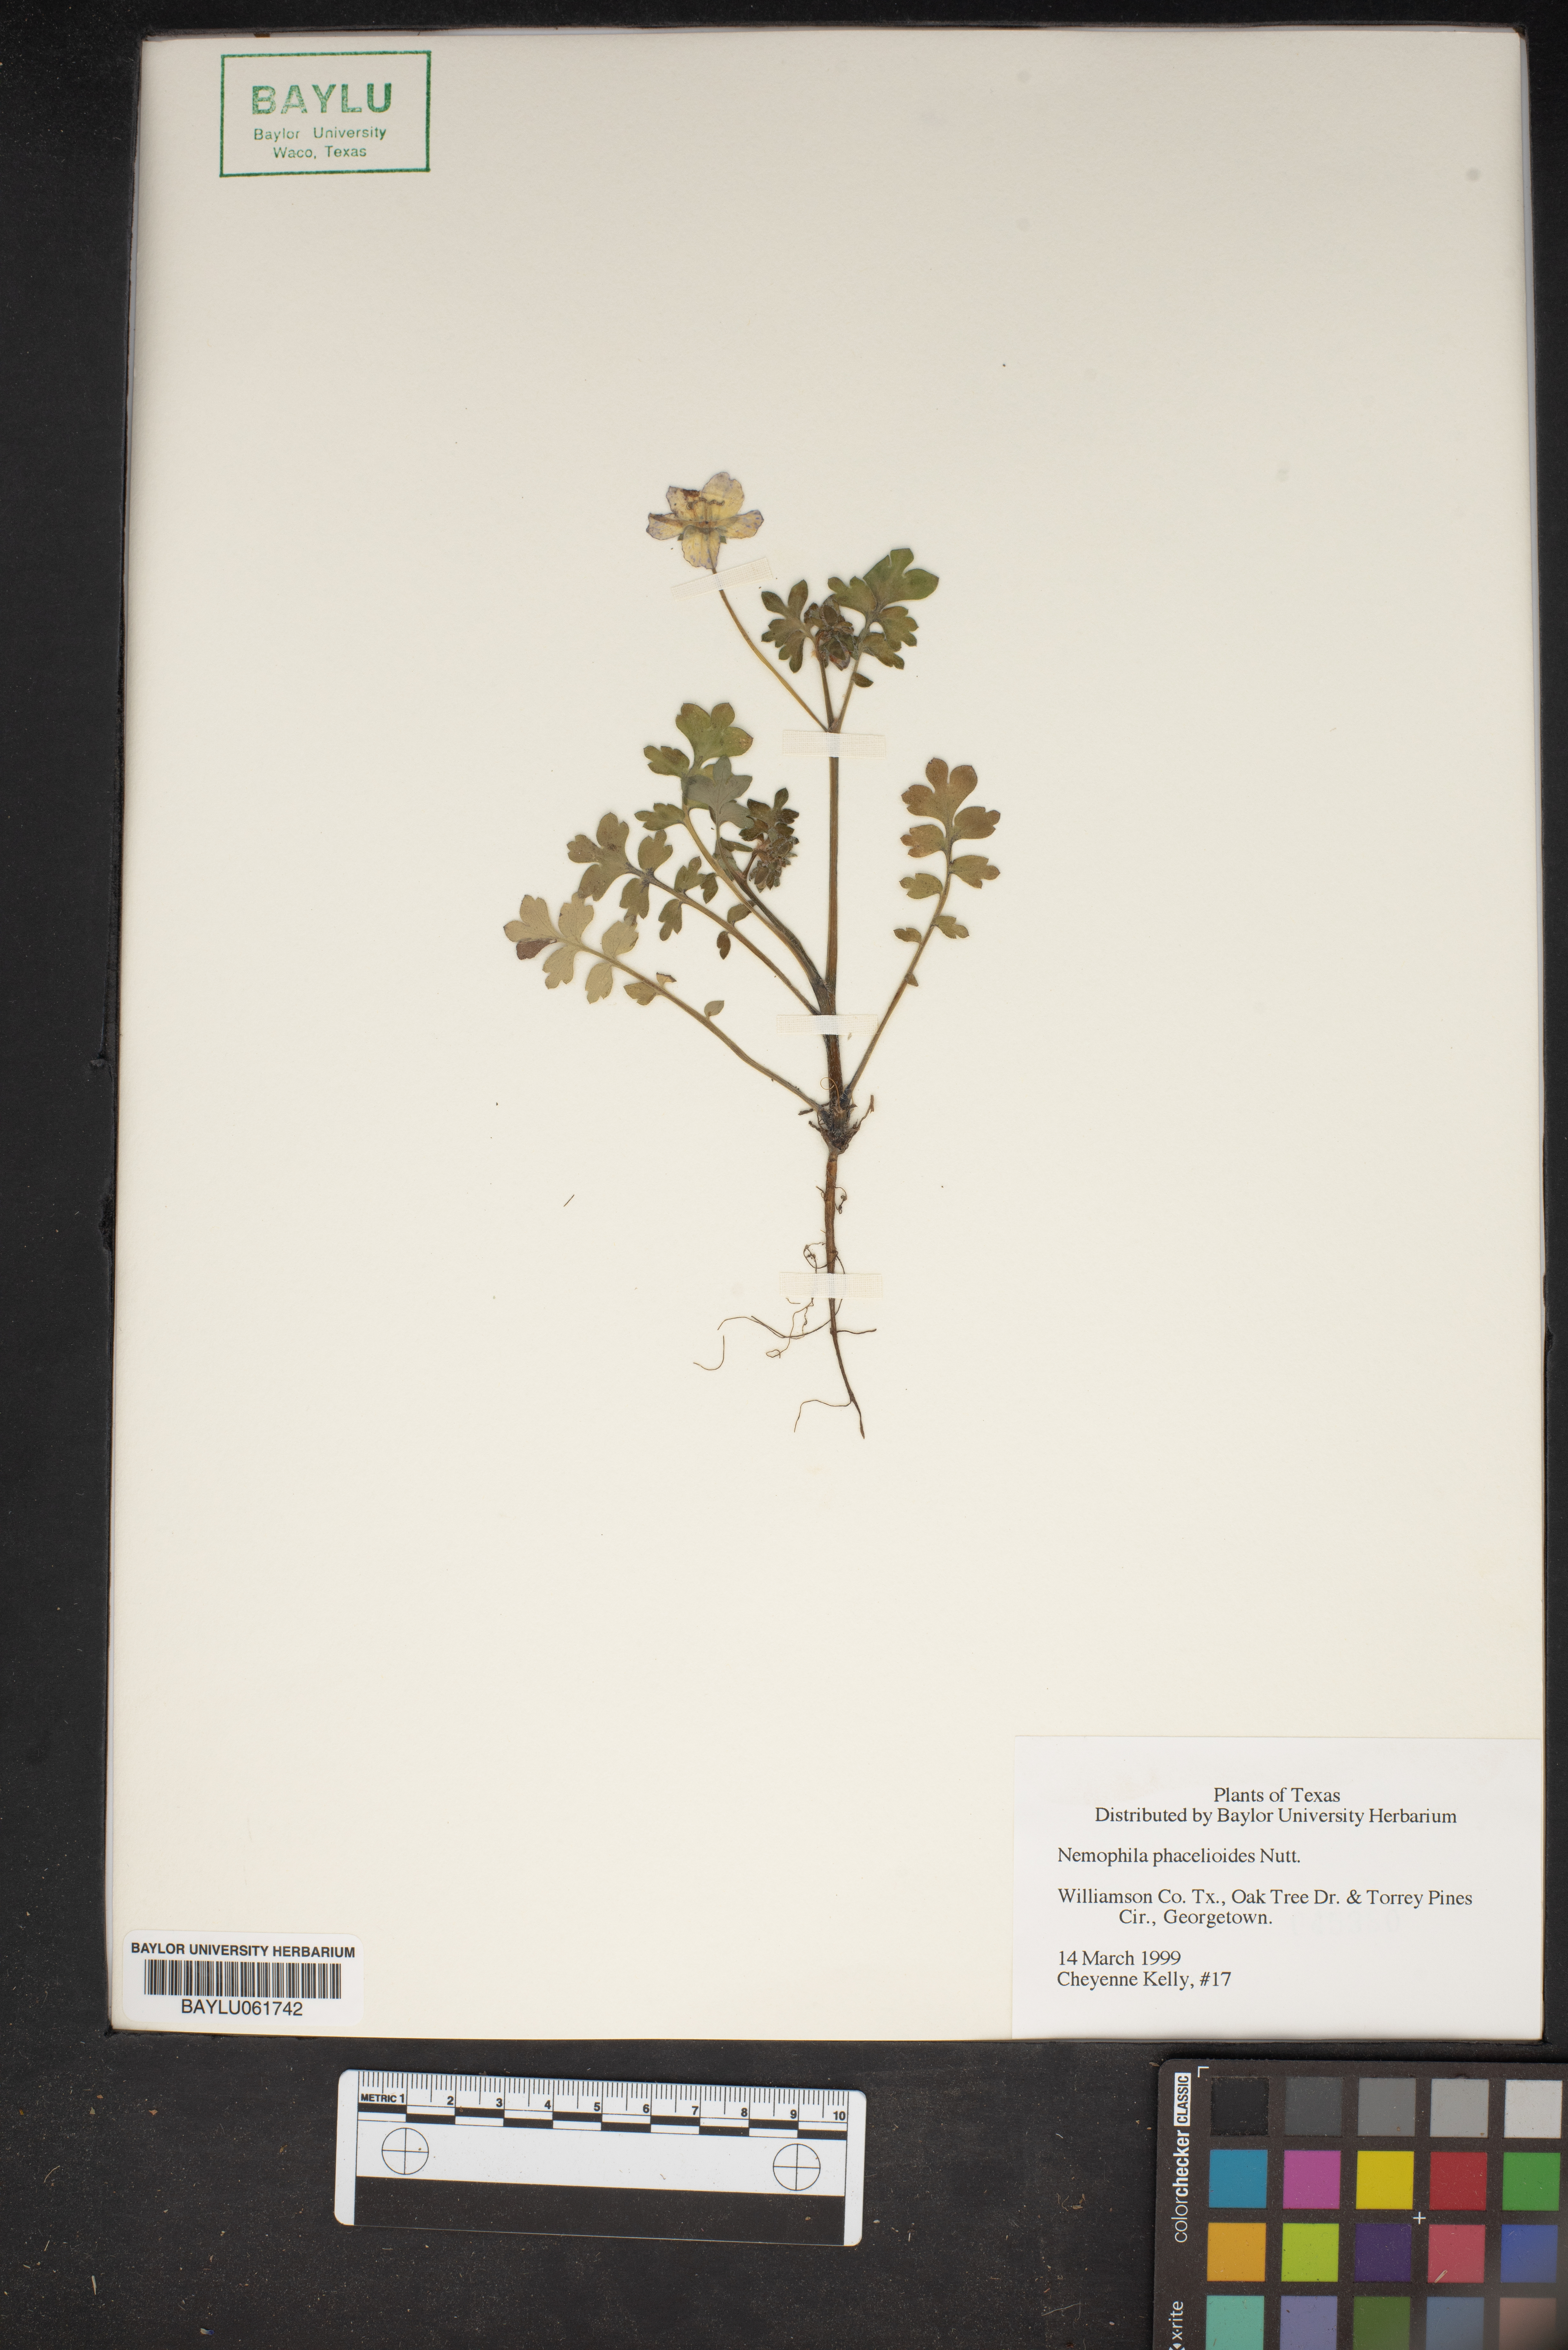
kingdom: Plantae
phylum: Tracheophyta
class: Magnoliopsida
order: Boraginales
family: Hydrophyllaceae
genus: Nemophila
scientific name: Nemophila phacelioides
